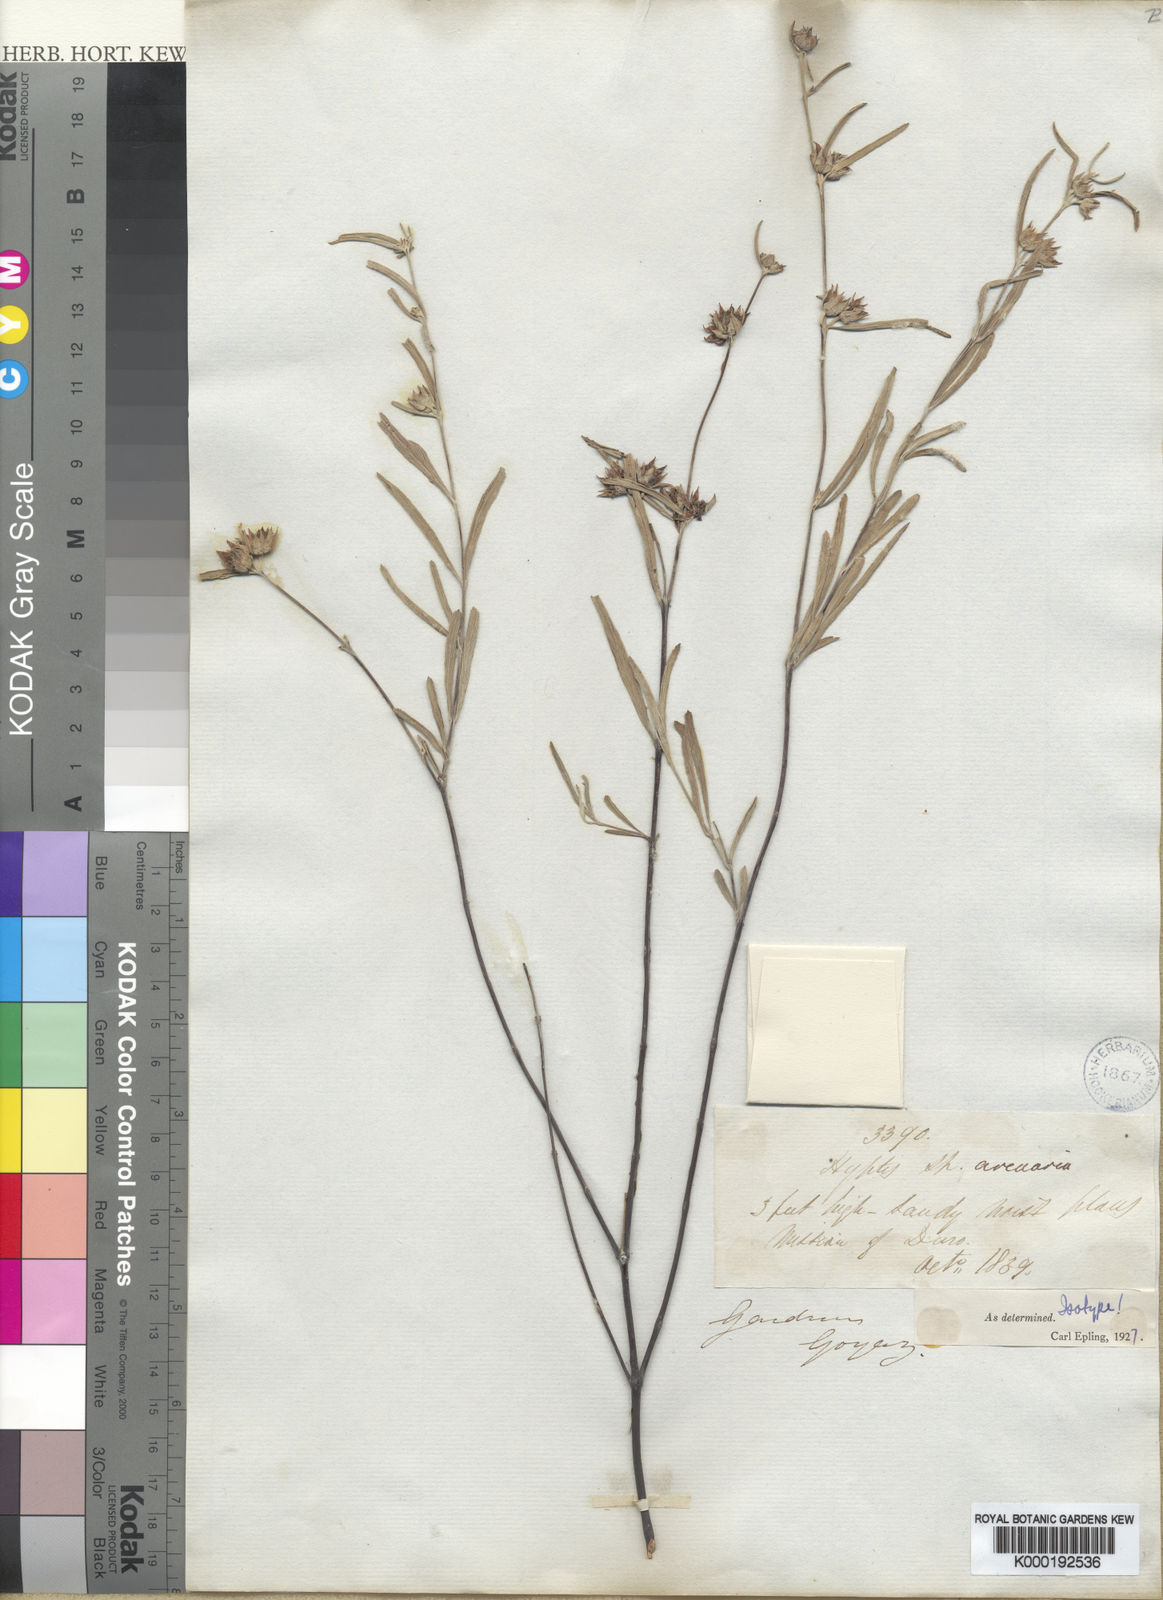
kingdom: Plantae
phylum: Tracheophyta
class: Magnoliopsida
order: Lamiales
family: Lamiaceae
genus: Hyptis
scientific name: Hyptis arenaria
